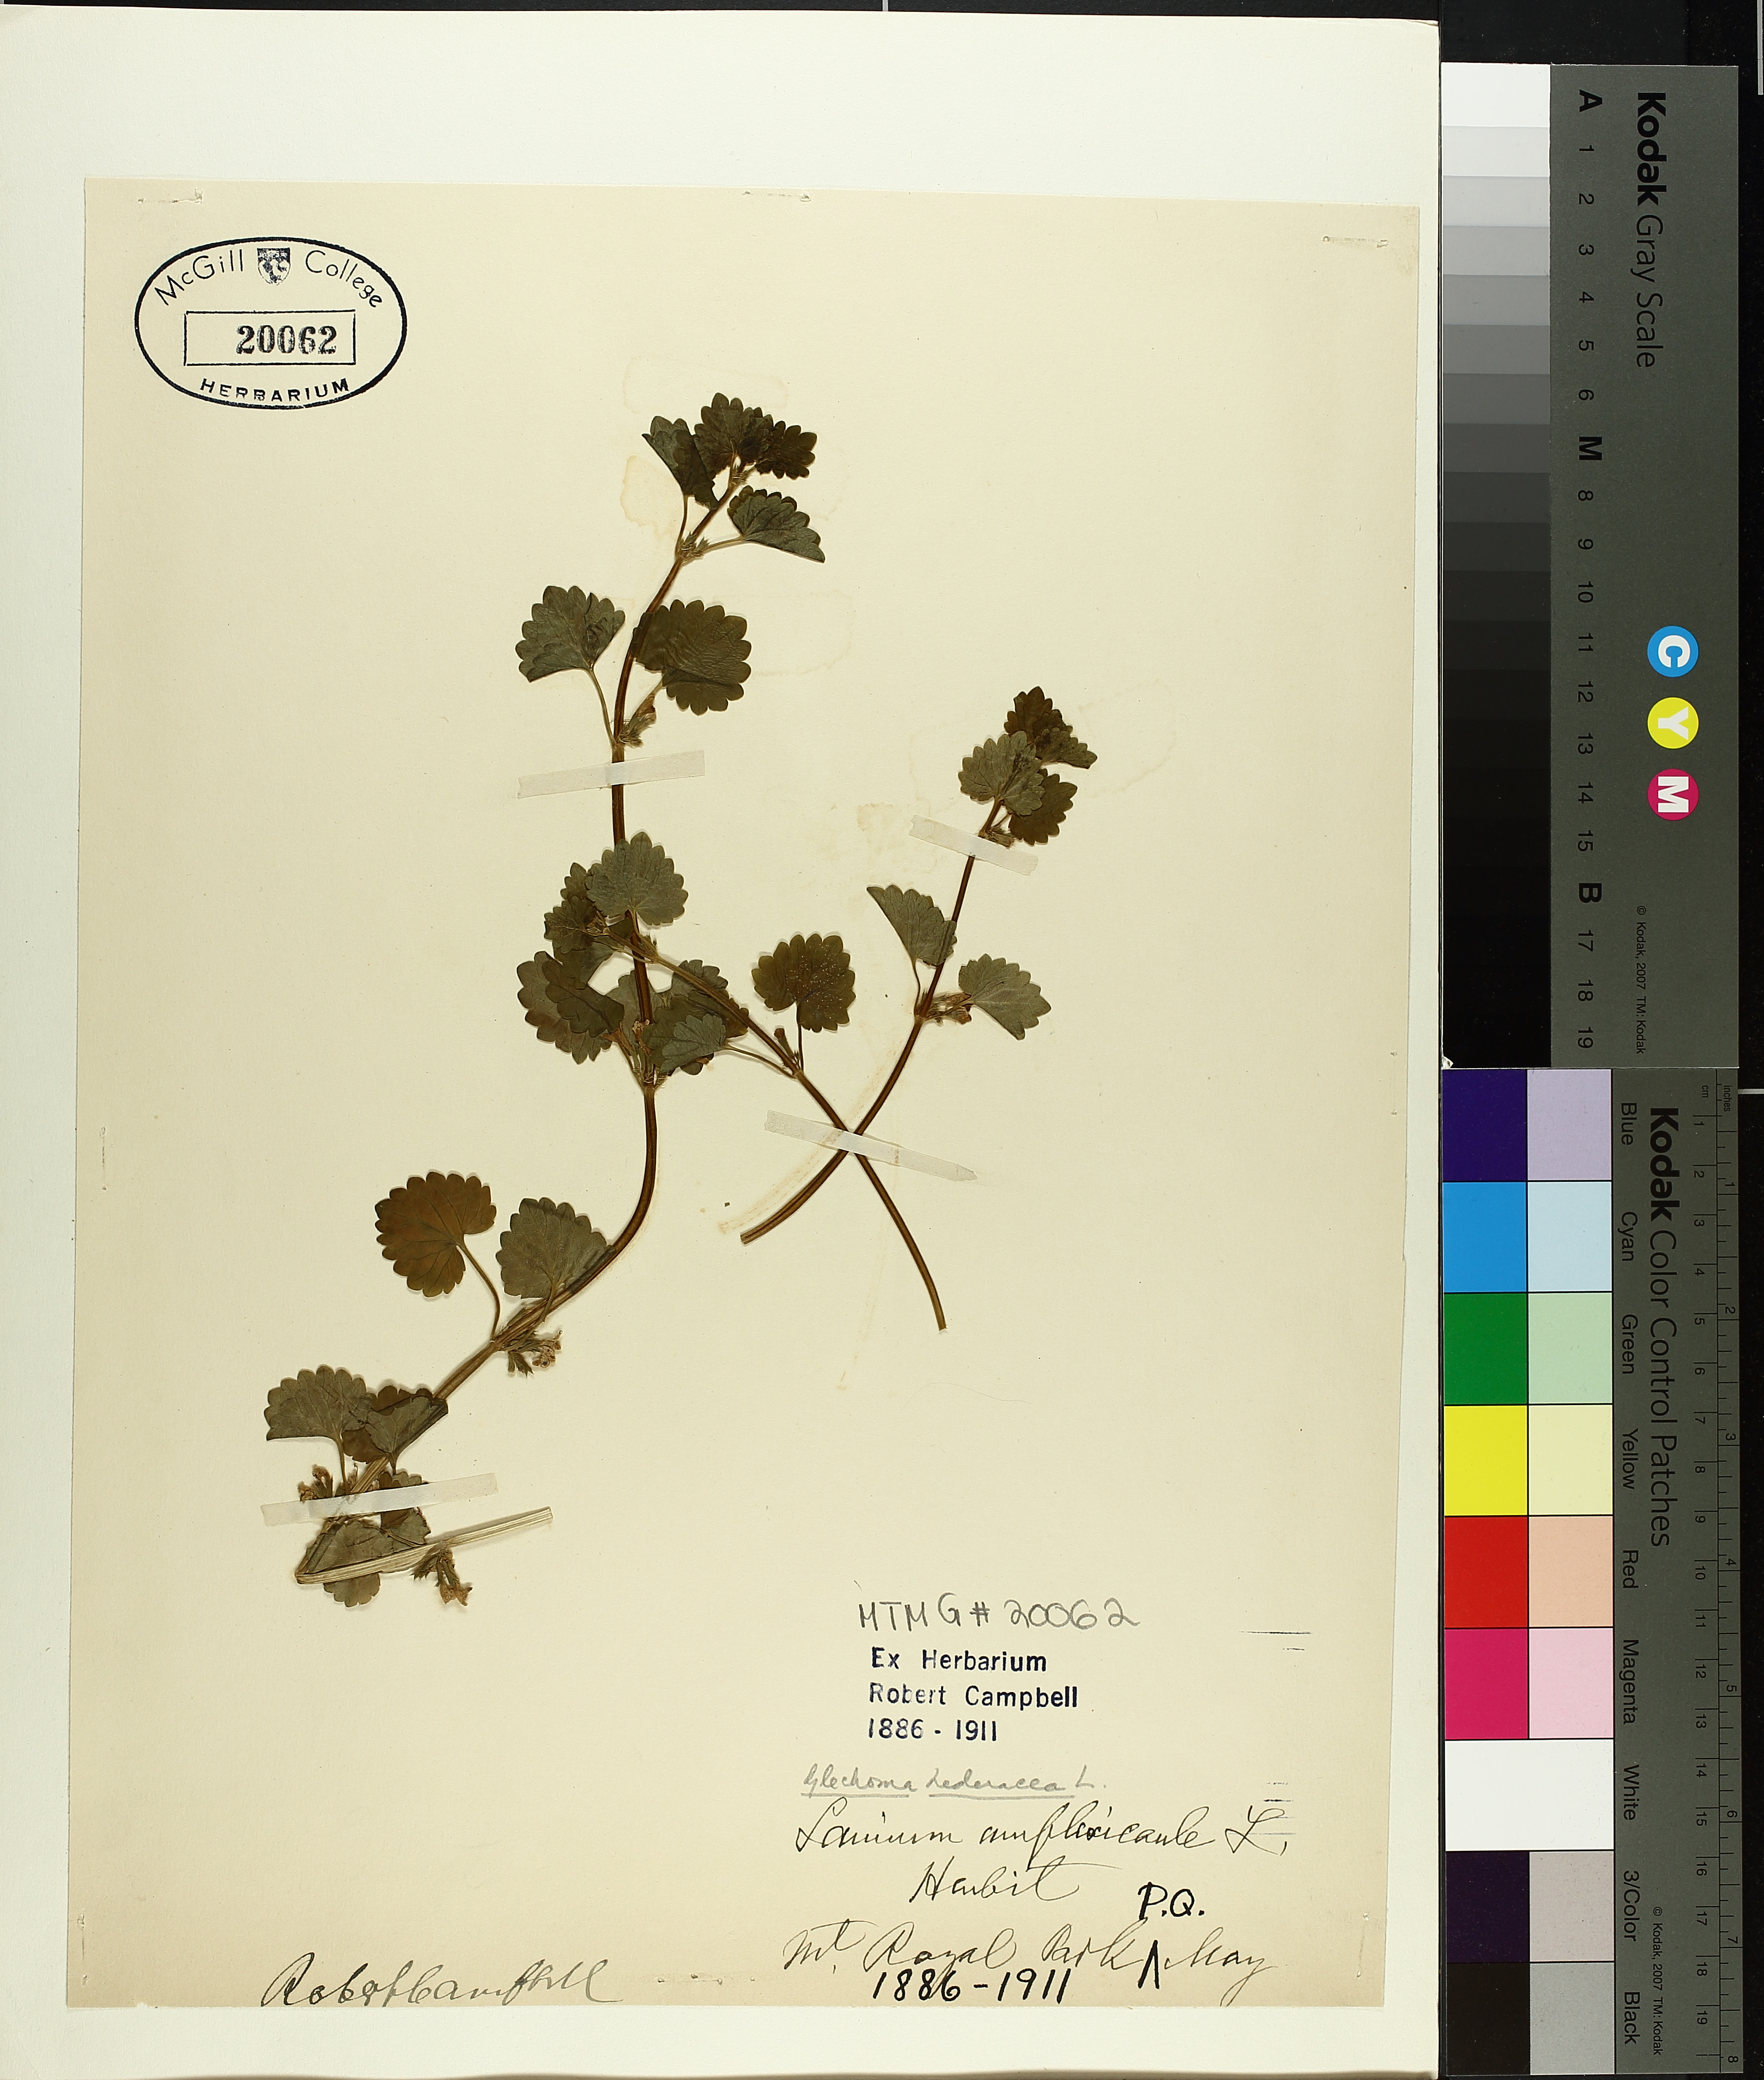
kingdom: Plantae
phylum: Tracheophyta
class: Magnoliopsida
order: Lamiales
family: Lamiaceae
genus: Lamium
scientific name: Lamium amplexicaule
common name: Henbit dead-nettle
